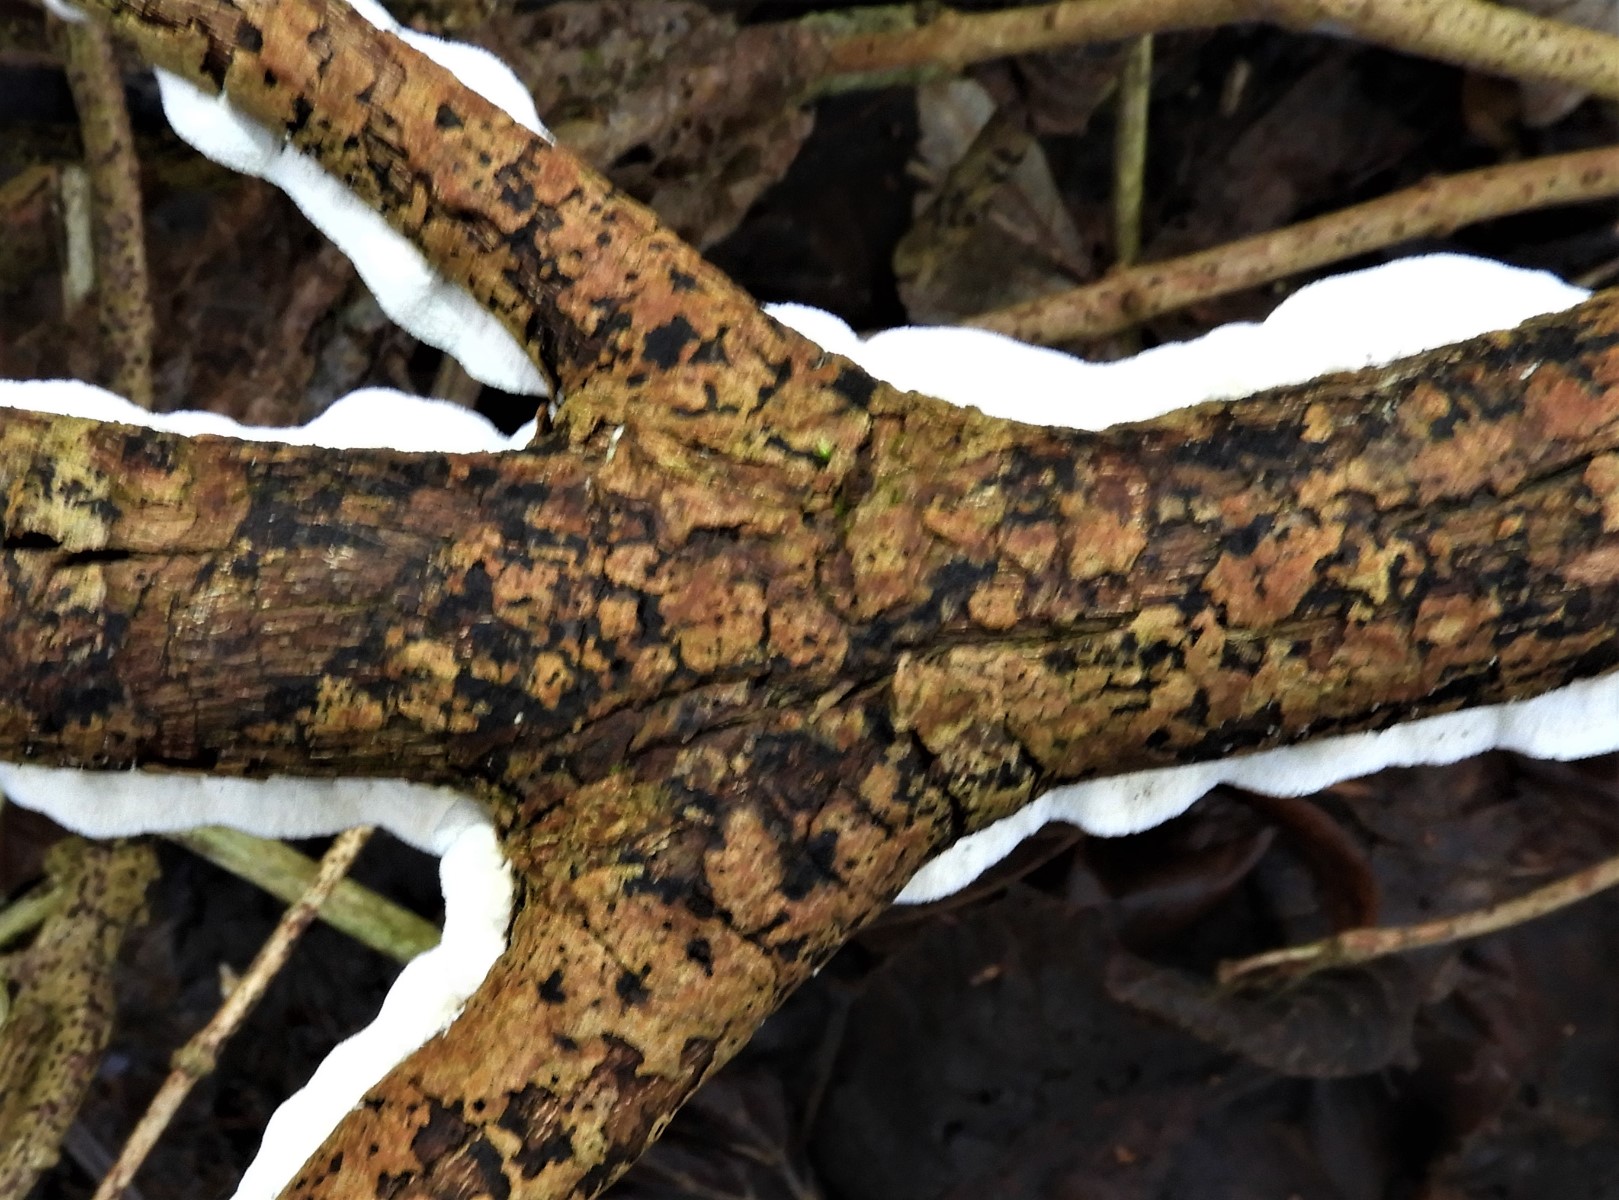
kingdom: Fungi
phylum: Basidiomycota
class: Agaricomycetes
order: Polyporales
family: Irpicaceae
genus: Byssomerulius
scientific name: Byssomerulius corium
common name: læder-åresvamp
